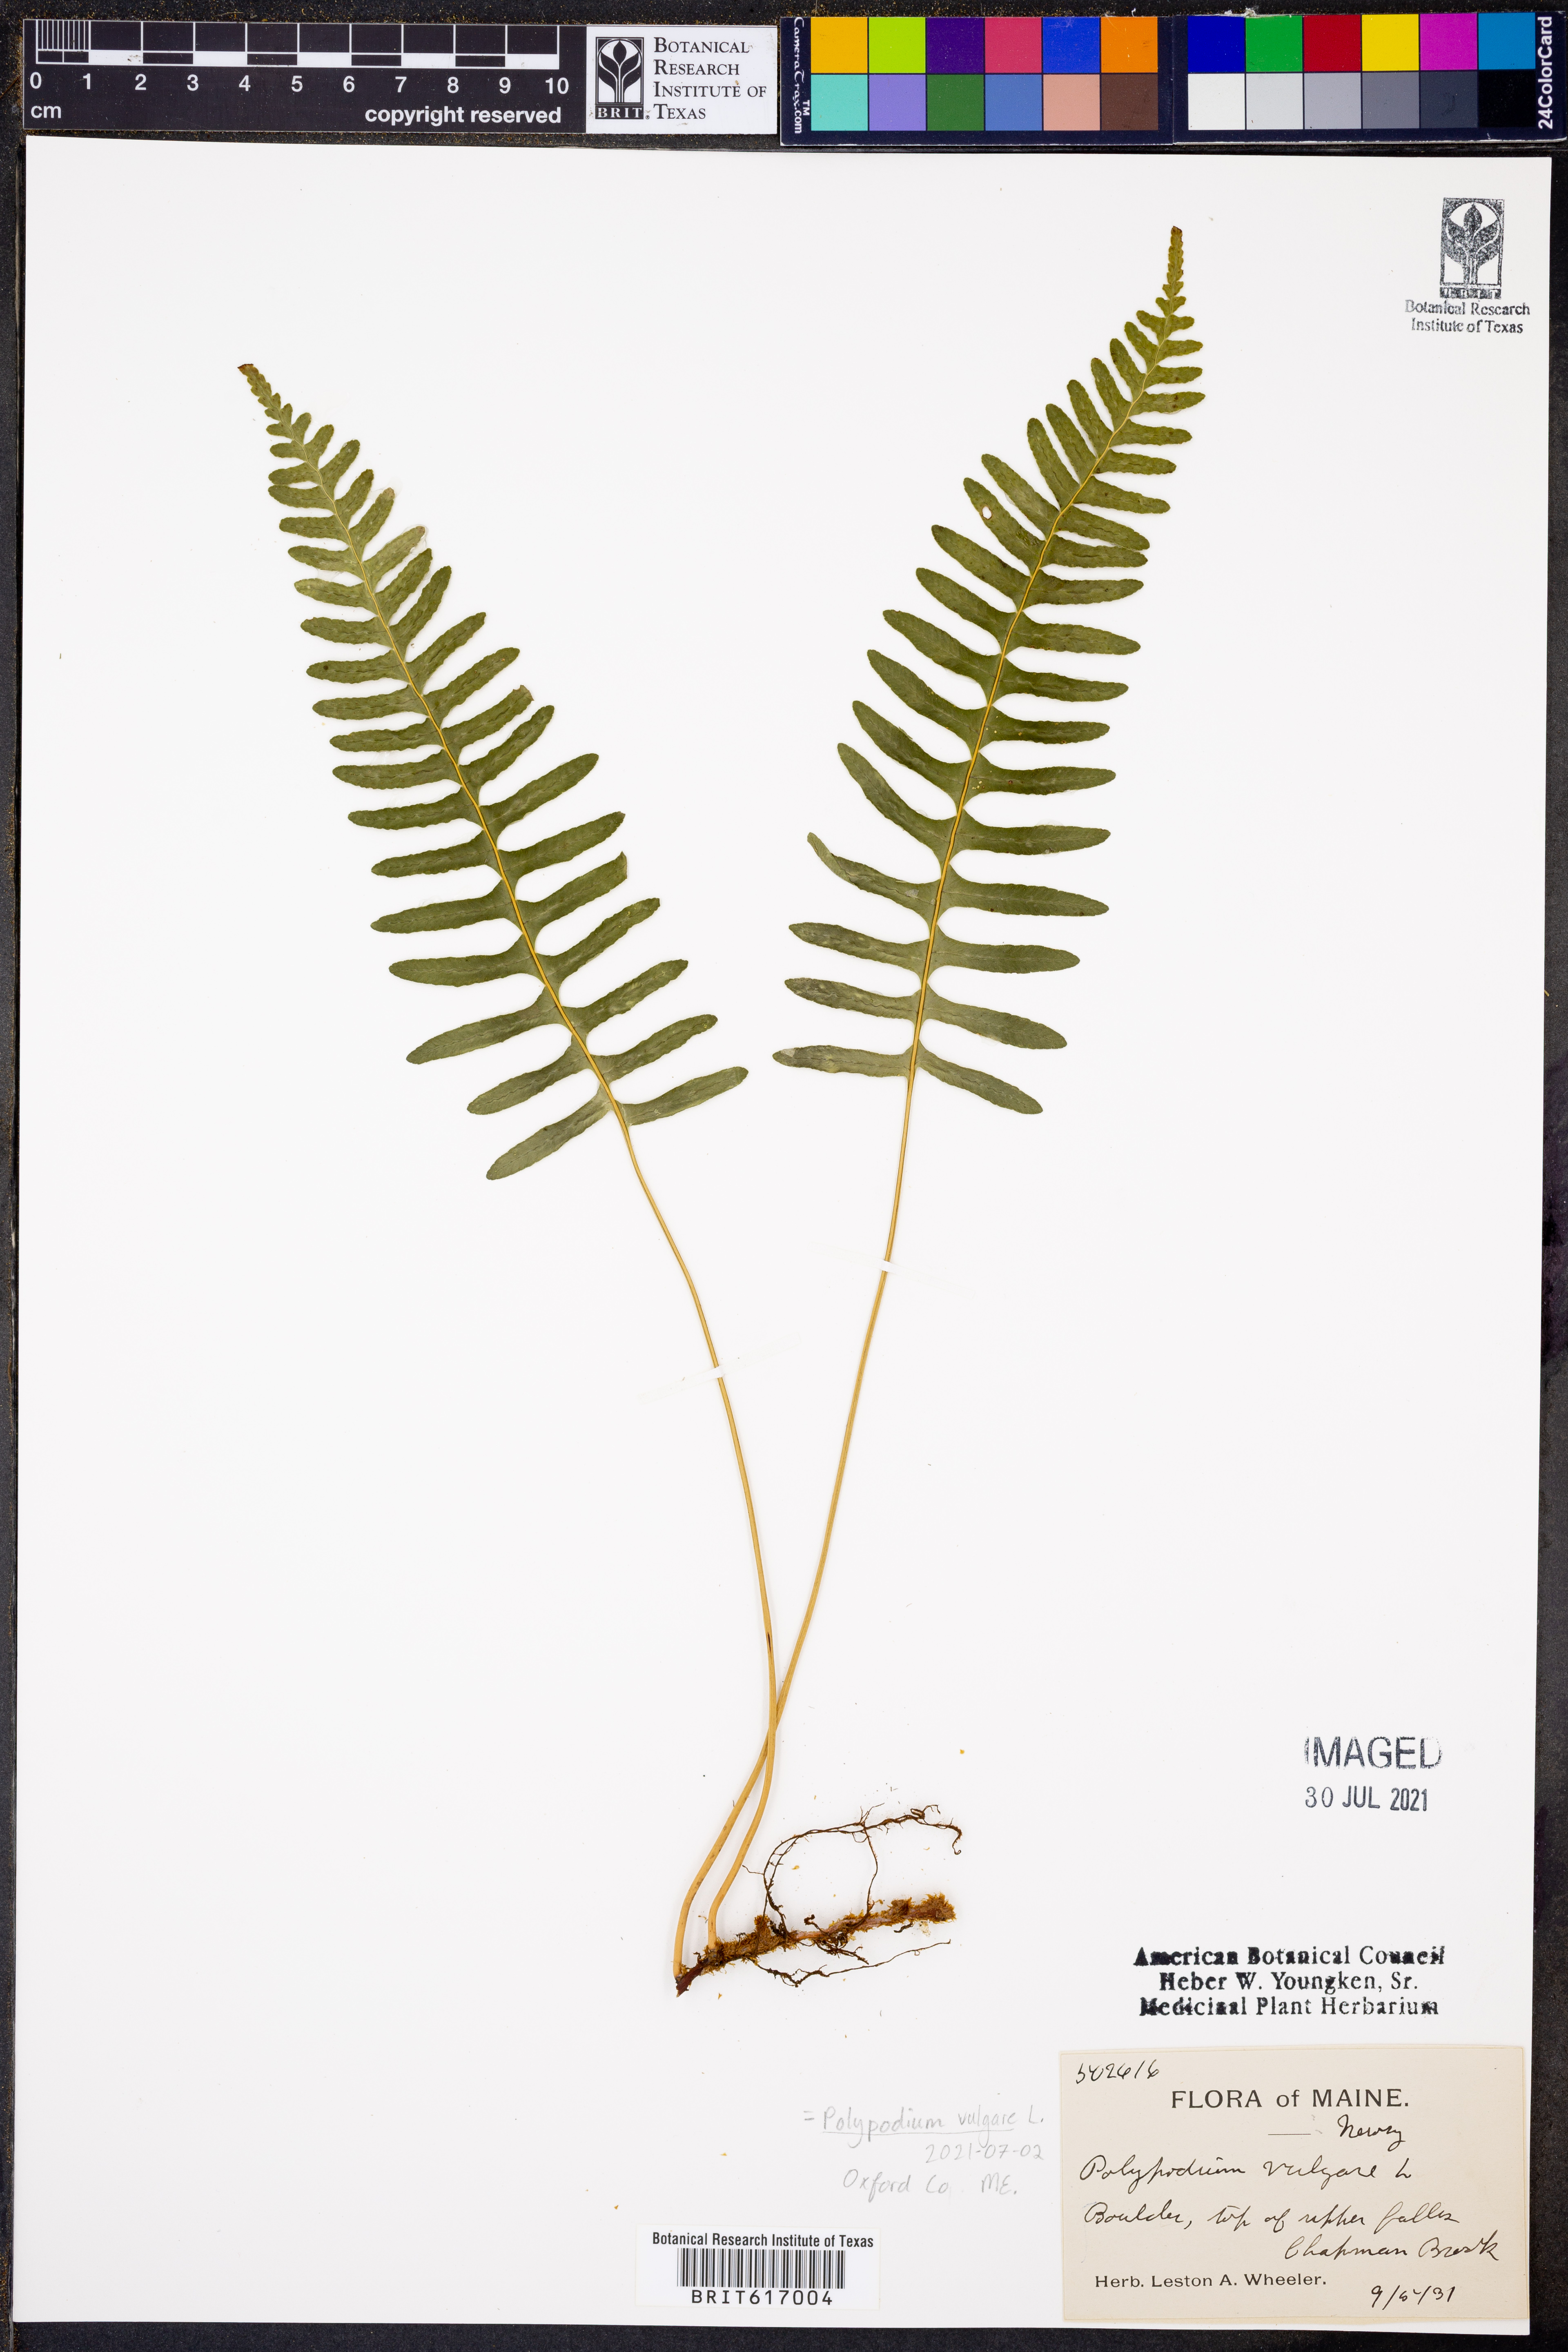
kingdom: Plantae
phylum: Tracheophyta
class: Polypodiopsida
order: Polypodiales
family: Polypodiaceae
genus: Polypodium
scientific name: Polypodium vulgare
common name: Common polypody
